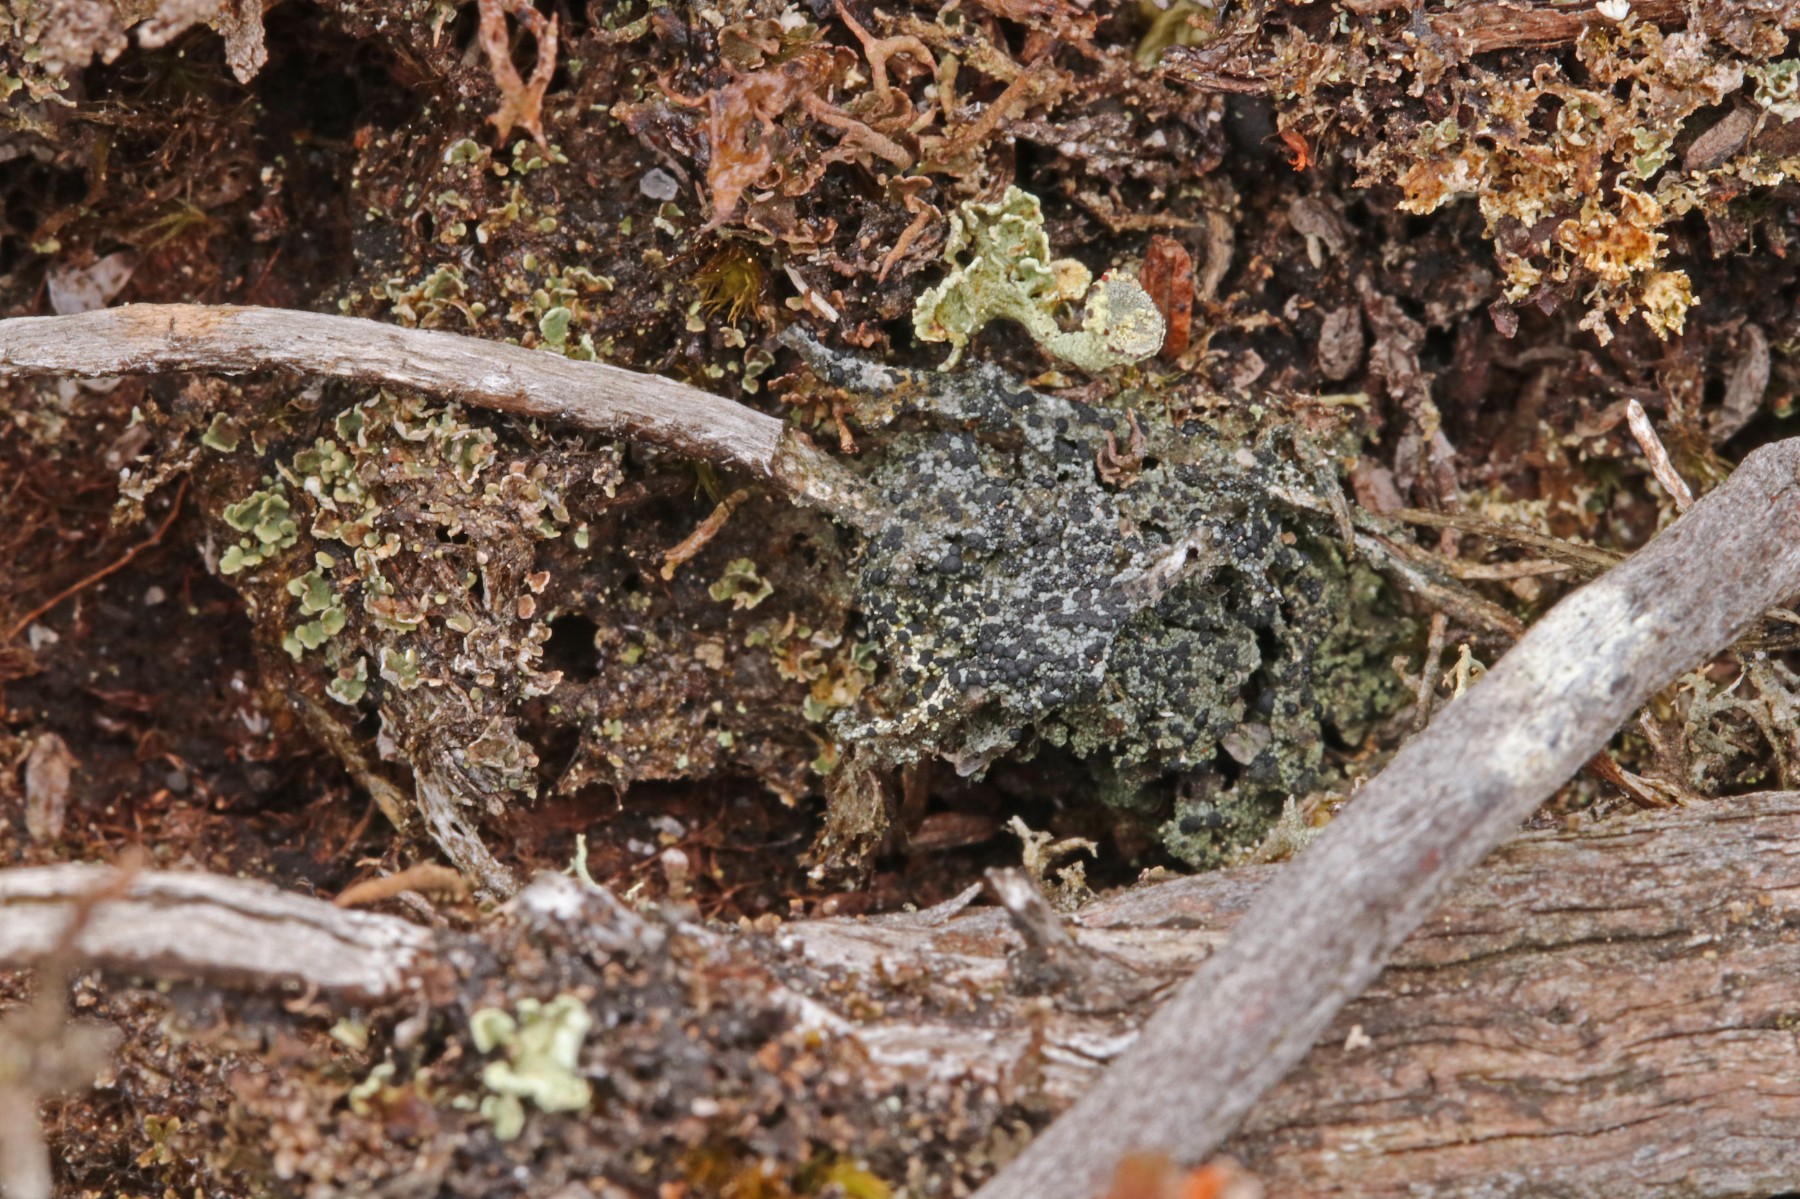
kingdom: Fungi
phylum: Ascomycota
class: Lecanoromycetes
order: Lecanorales
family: Byssolomataceae
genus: Micarea
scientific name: Micarea lignaria
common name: tørve-knaplav
